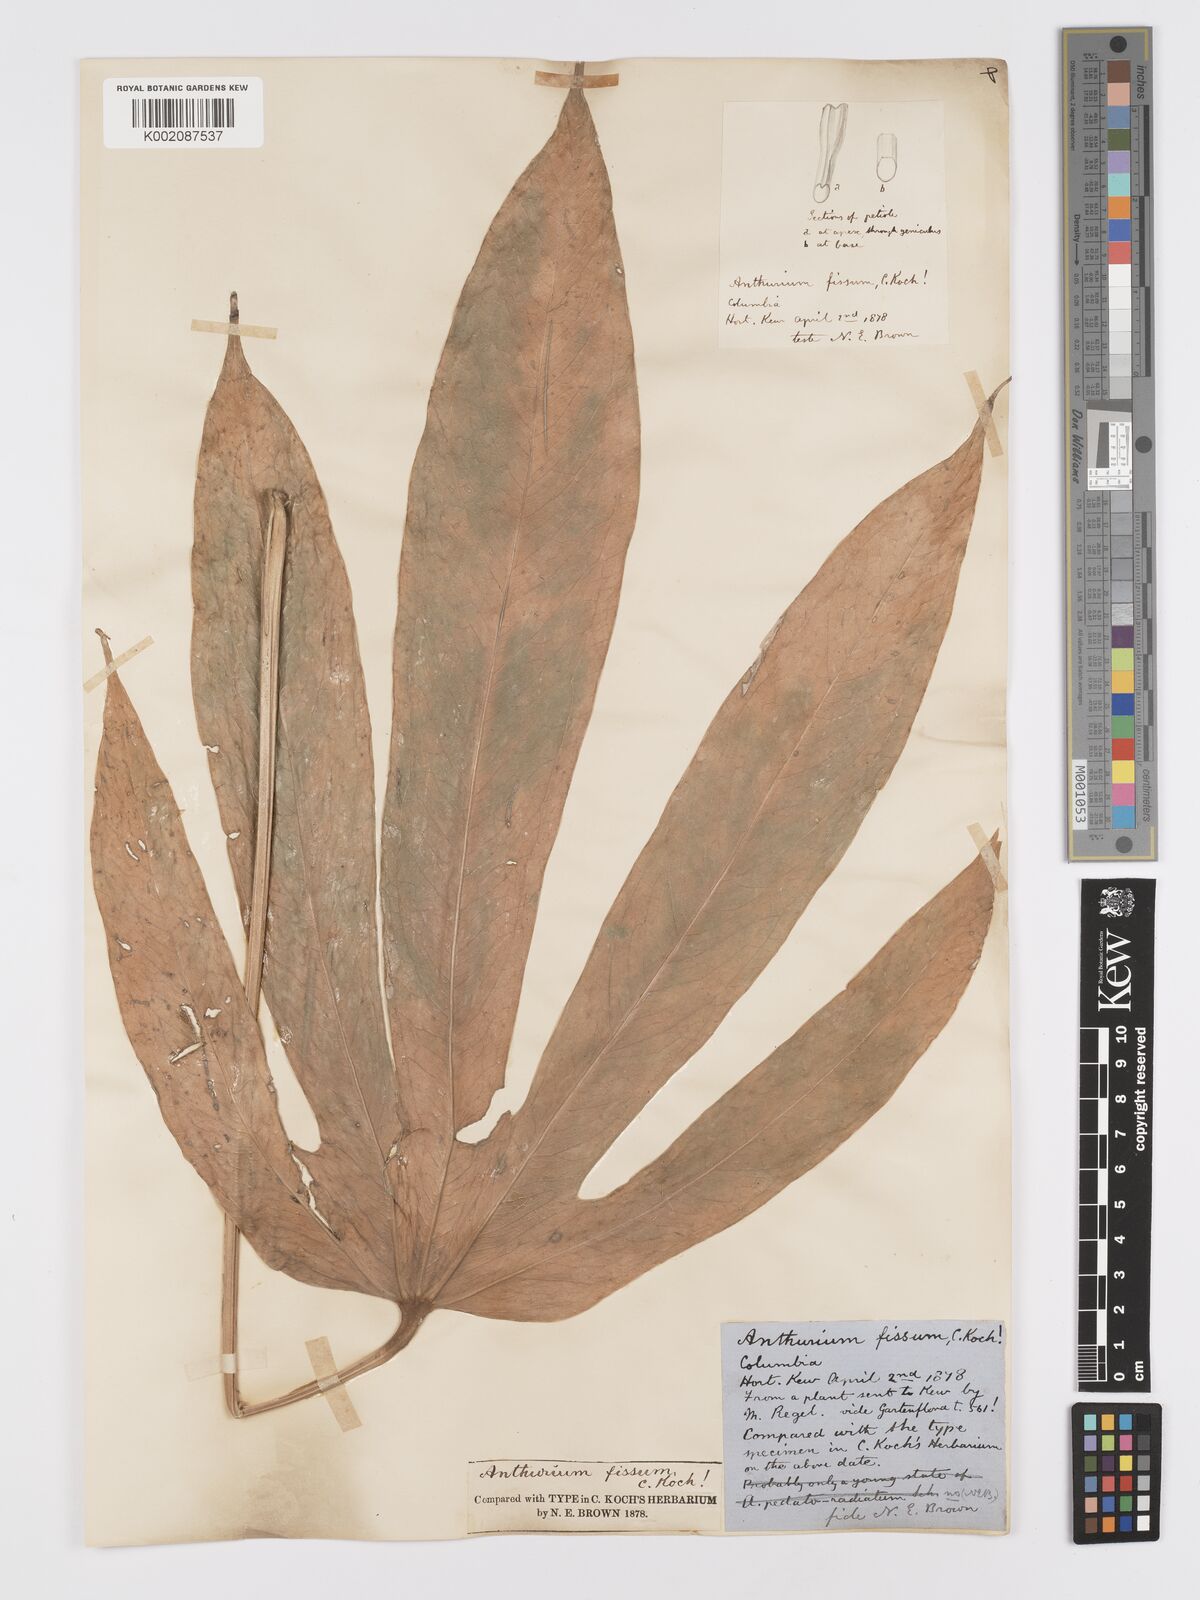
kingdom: Plantae
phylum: Tracheophyta
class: Liliopsida
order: Alismatales
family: Araceae
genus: Anthurium
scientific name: Anthurium palmatum
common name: Mibi
